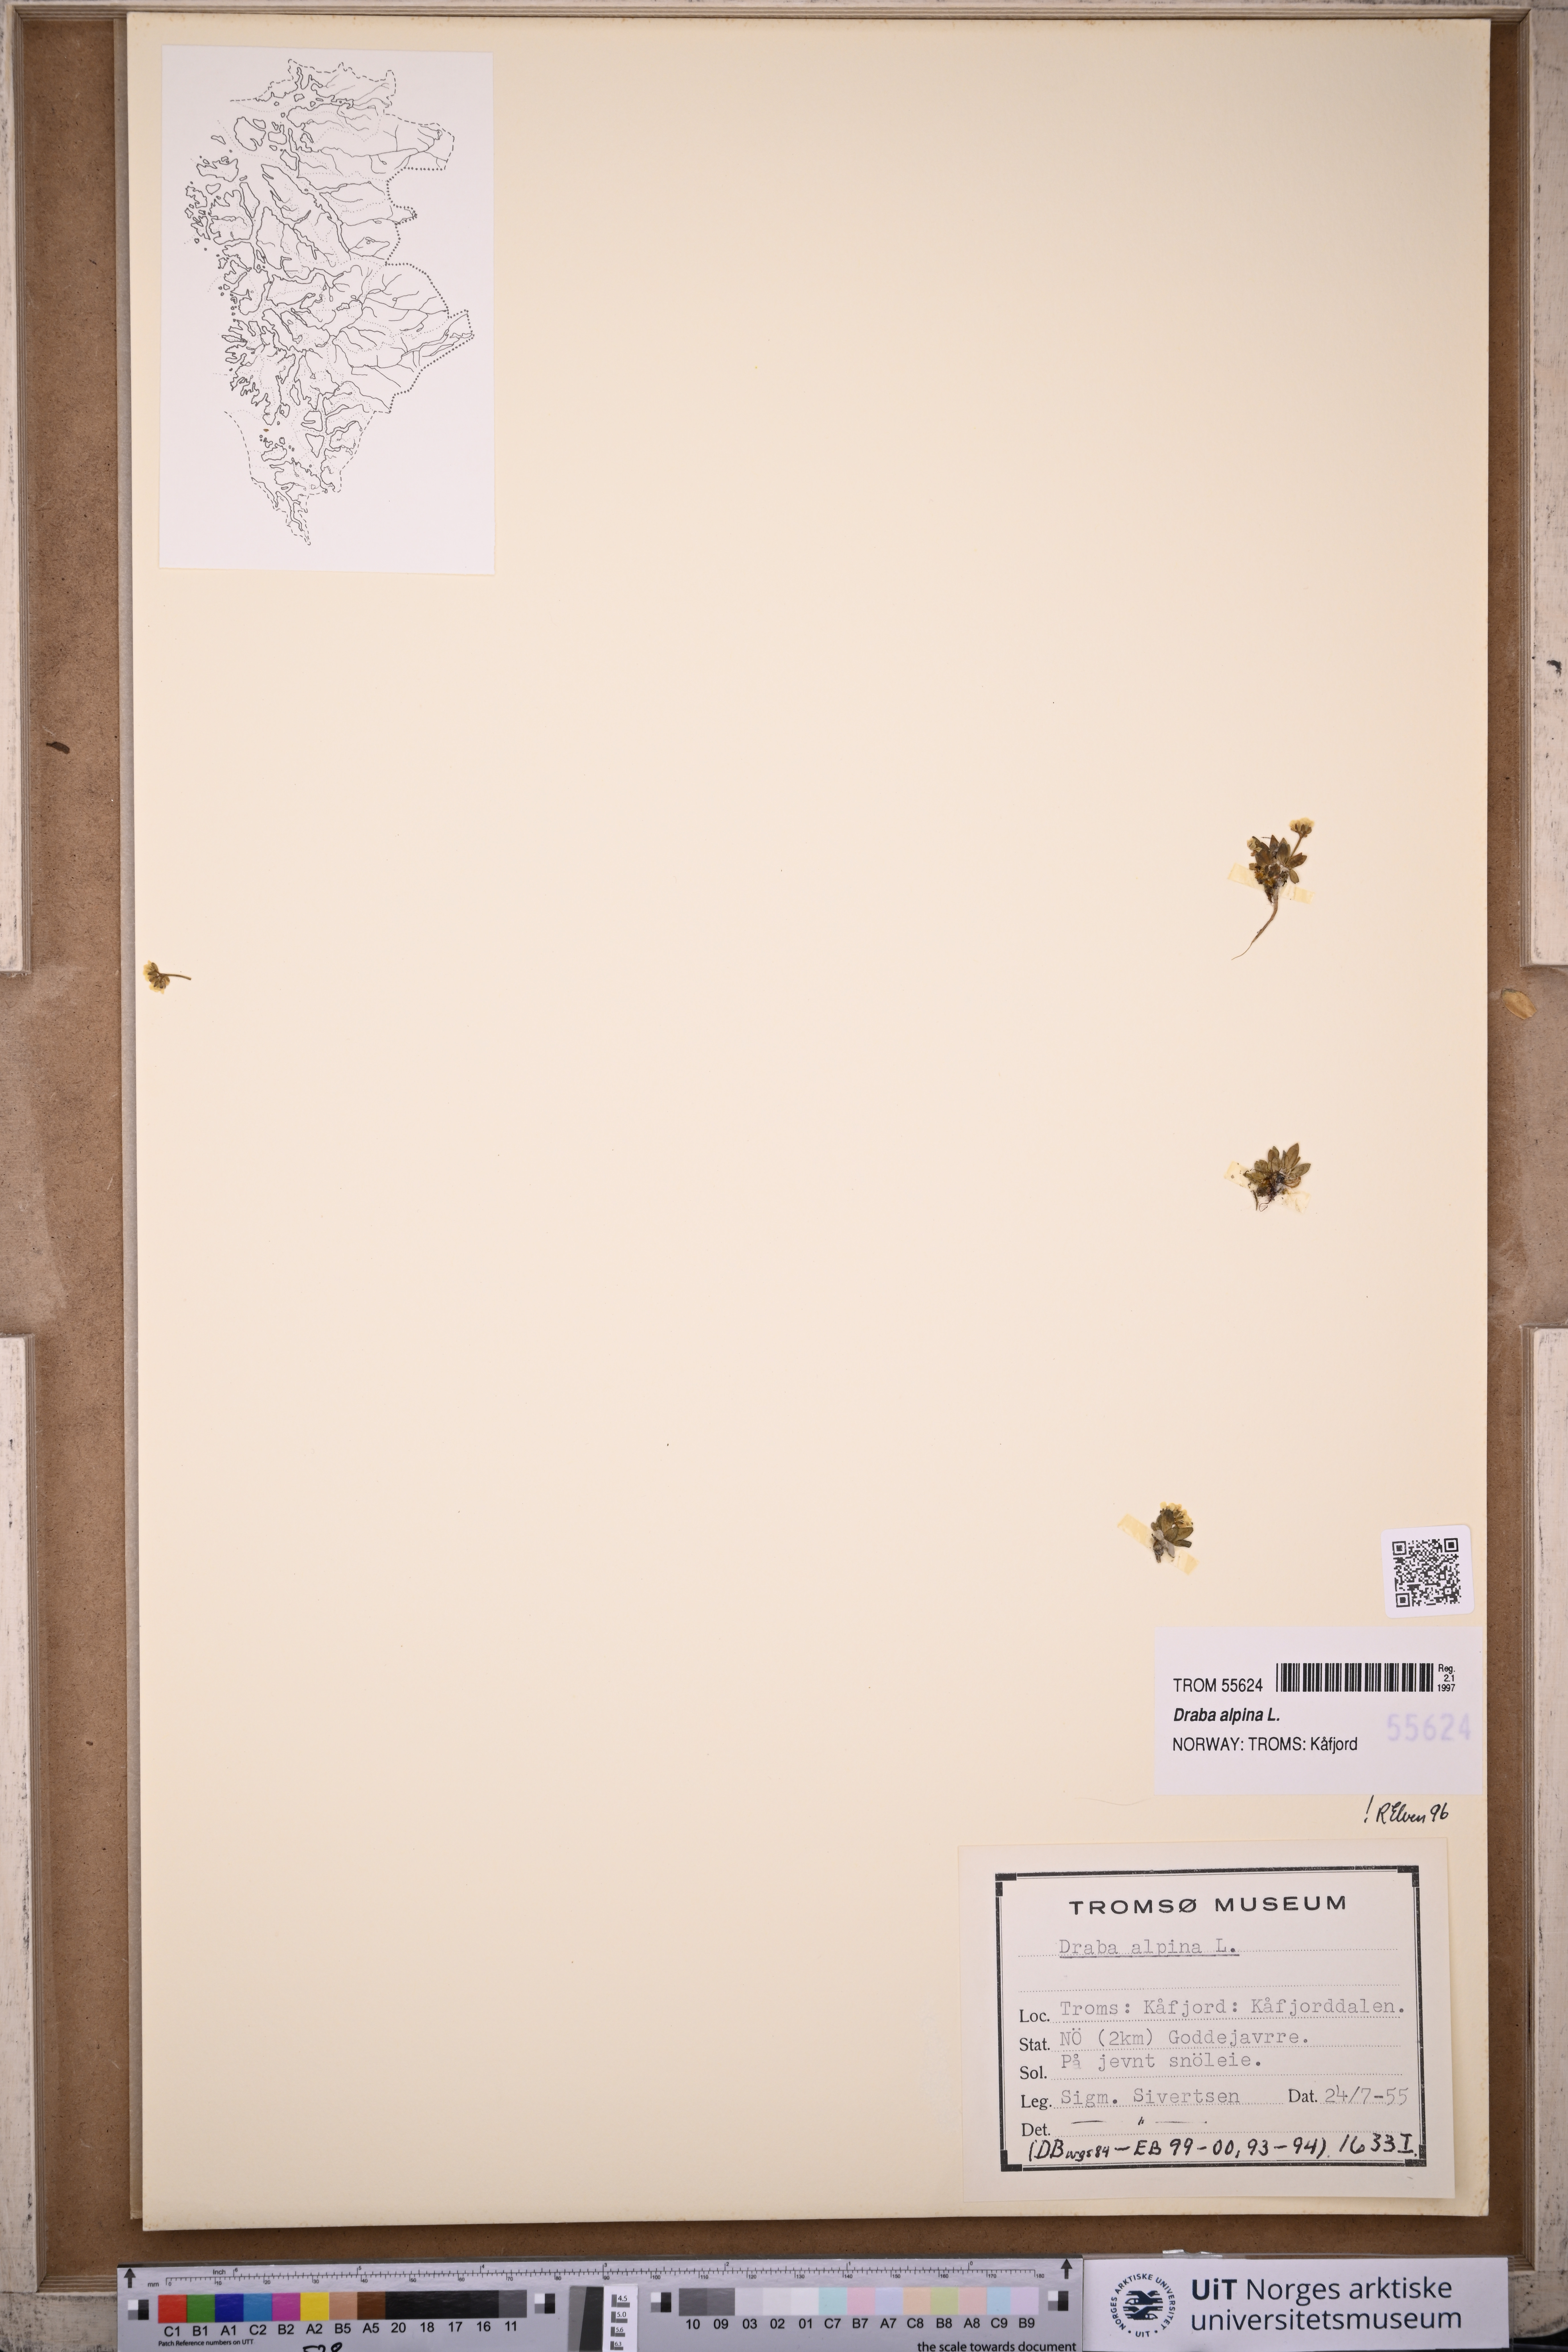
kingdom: Plantae
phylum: Tracheophyta
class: Magnoliopsida
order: Brassicales
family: Brassicaceae
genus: Draba
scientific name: Draba alpina
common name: Alpine draba
